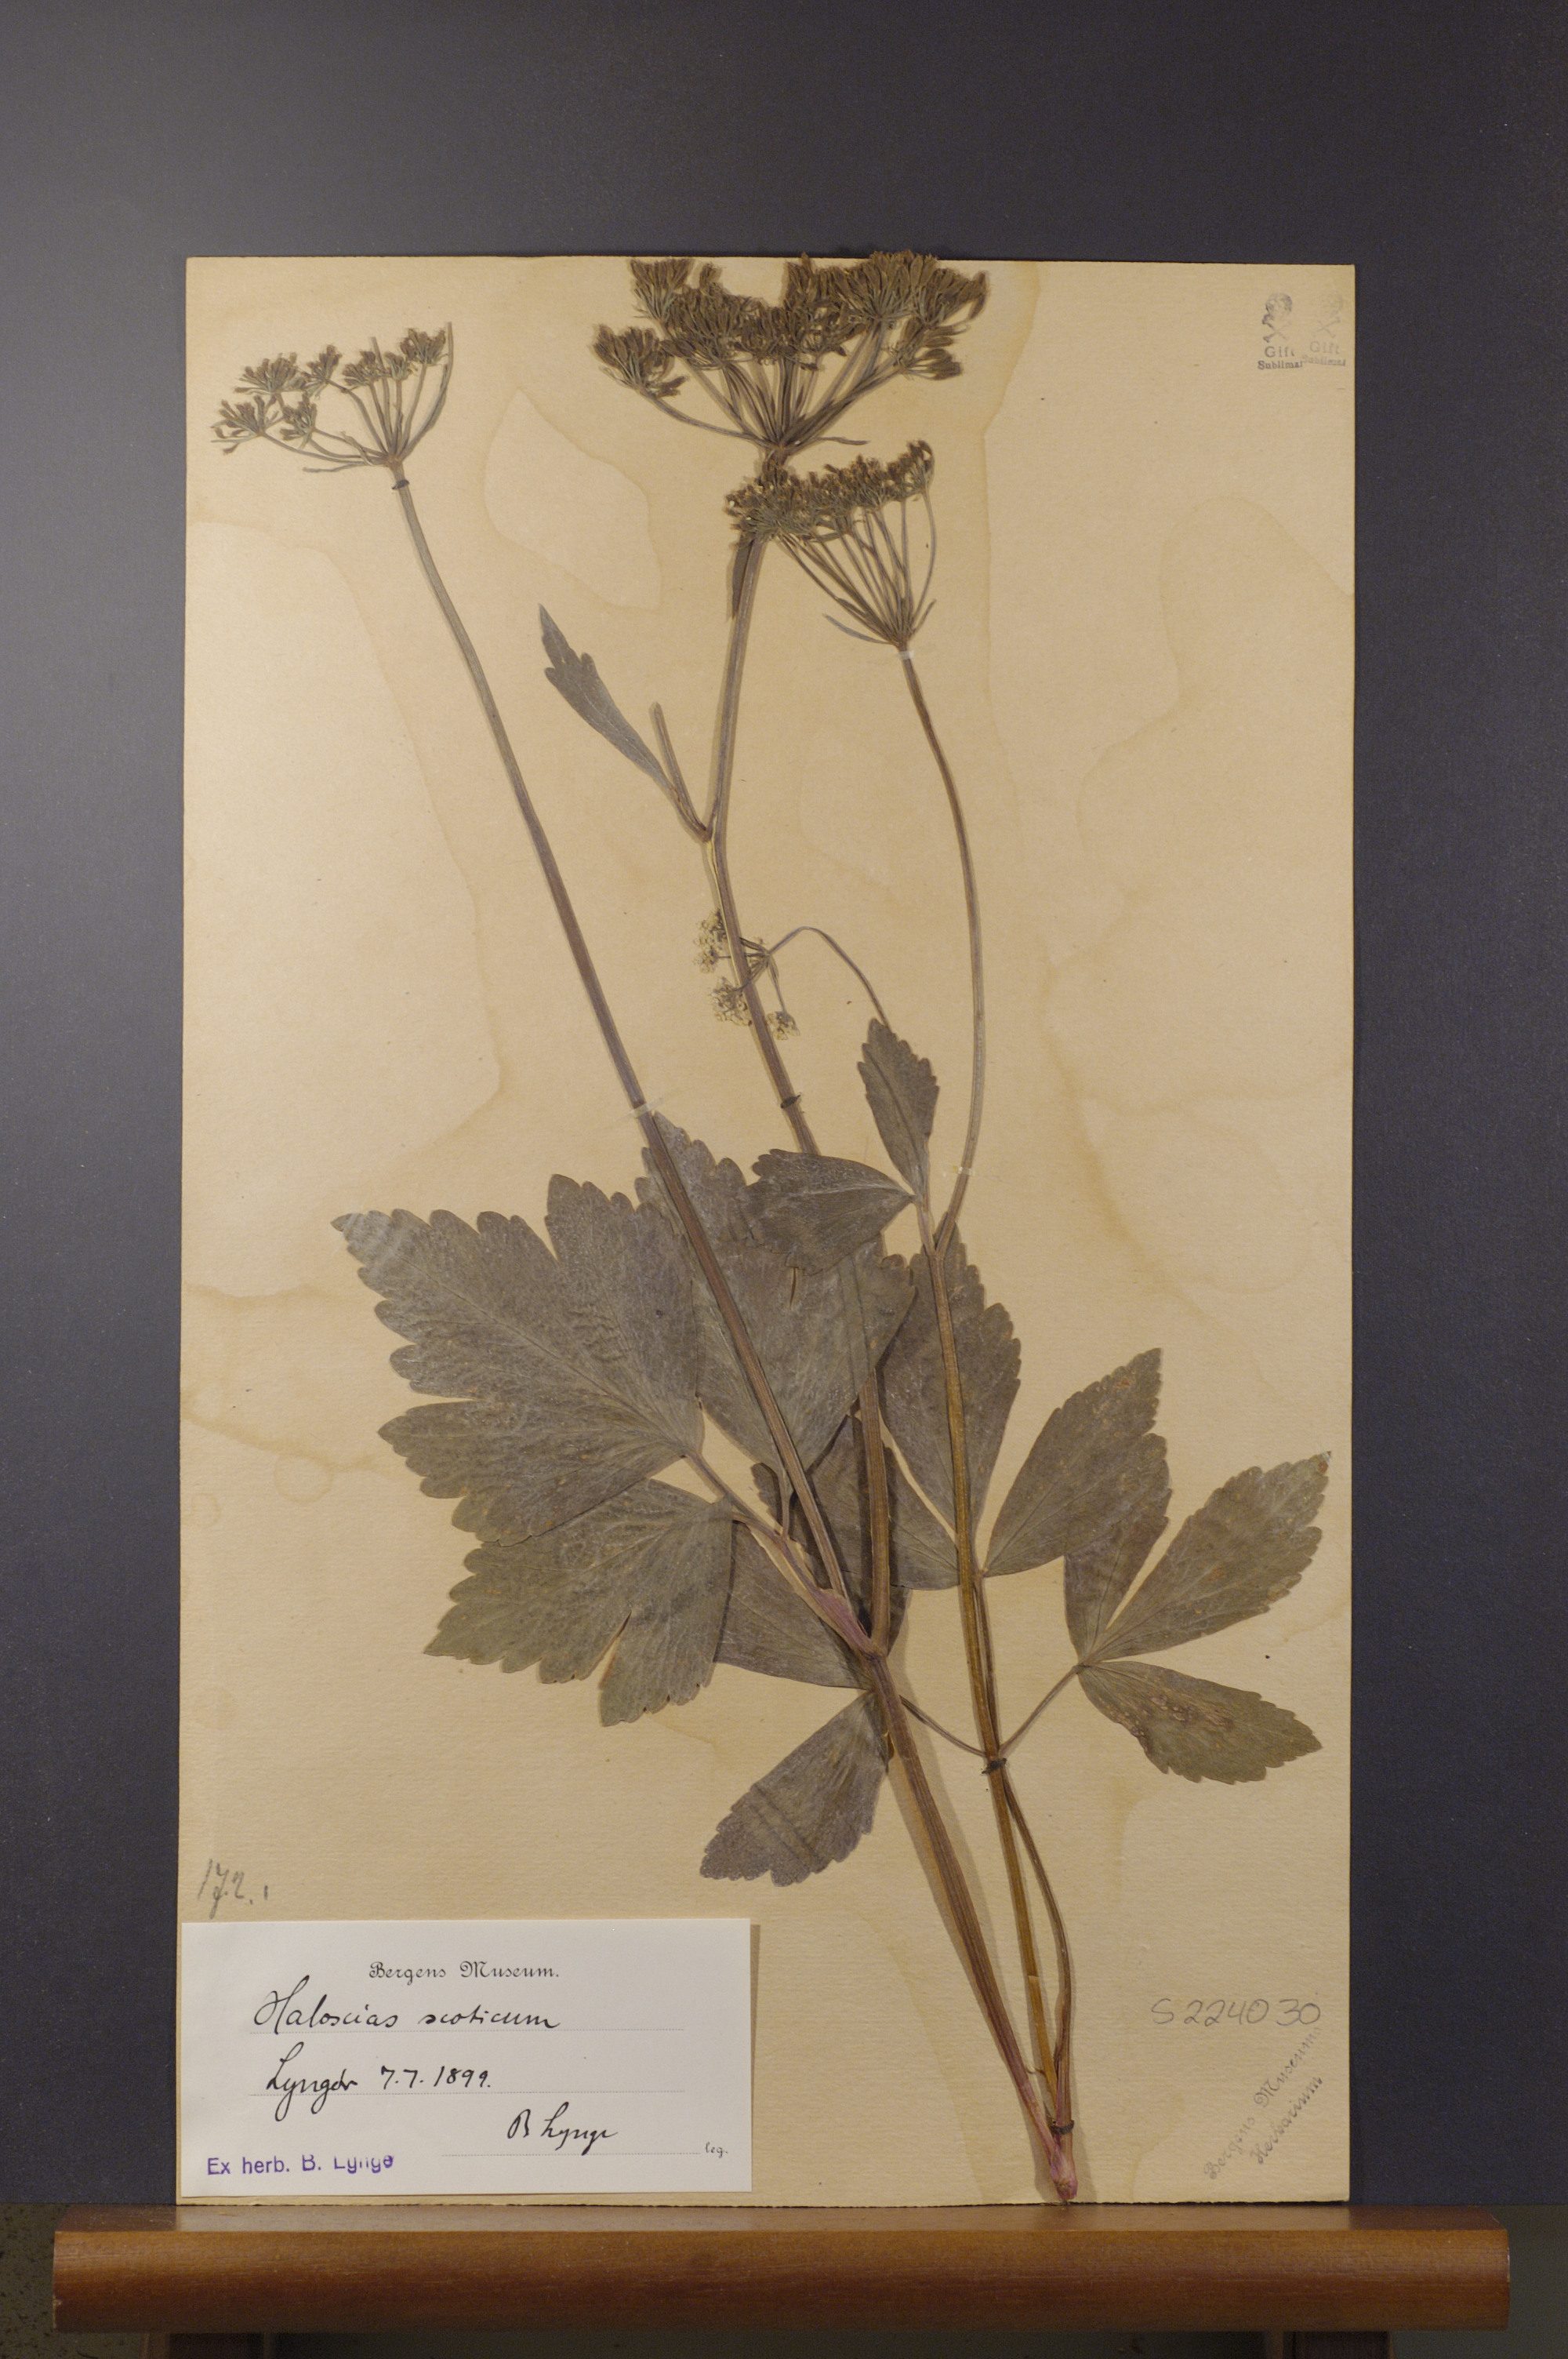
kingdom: Plantae
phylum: Tracheophyta
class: Magnoliopsida
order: Apiales
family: Apiaceae
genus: Ligusticum
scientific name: Ligusticum scothicum
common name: Beach lovage
